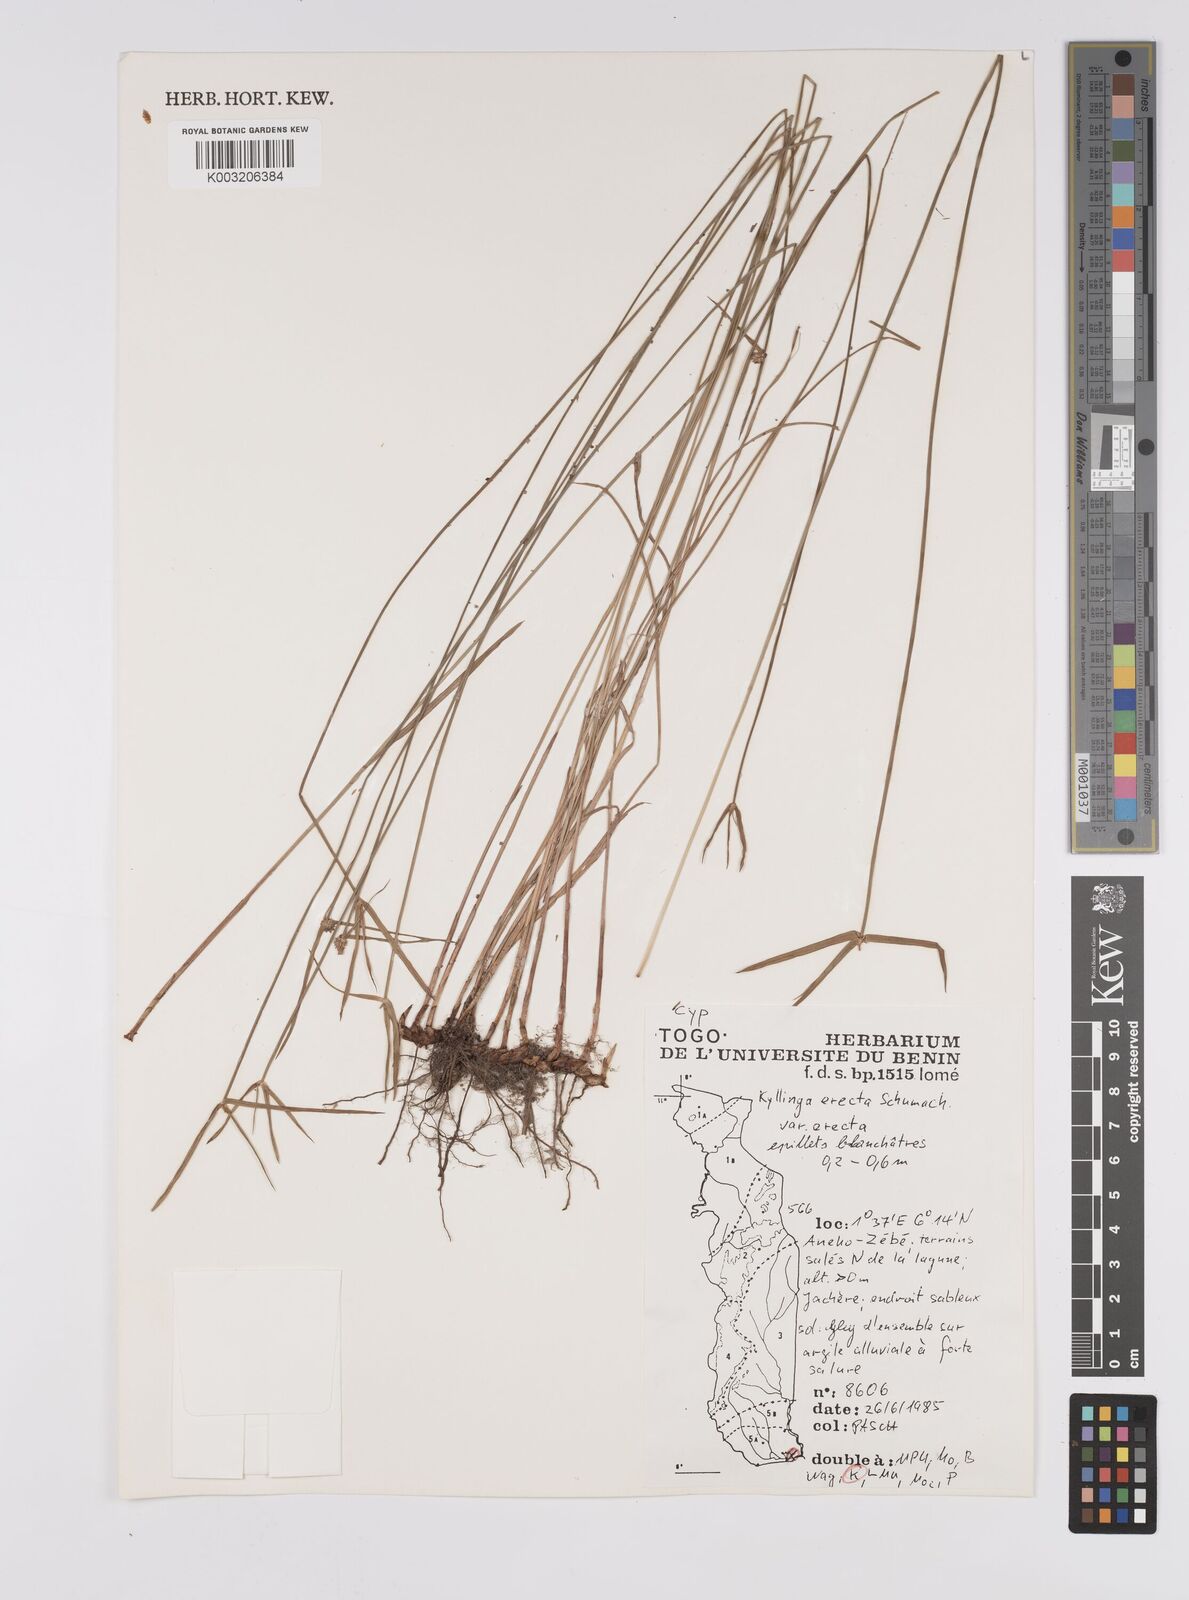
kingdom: Plantae
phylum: Tracheophyta
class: Liliopsida
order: Poales
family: Cyperaceae
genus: Cyperus
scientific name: Cyperus erectus
